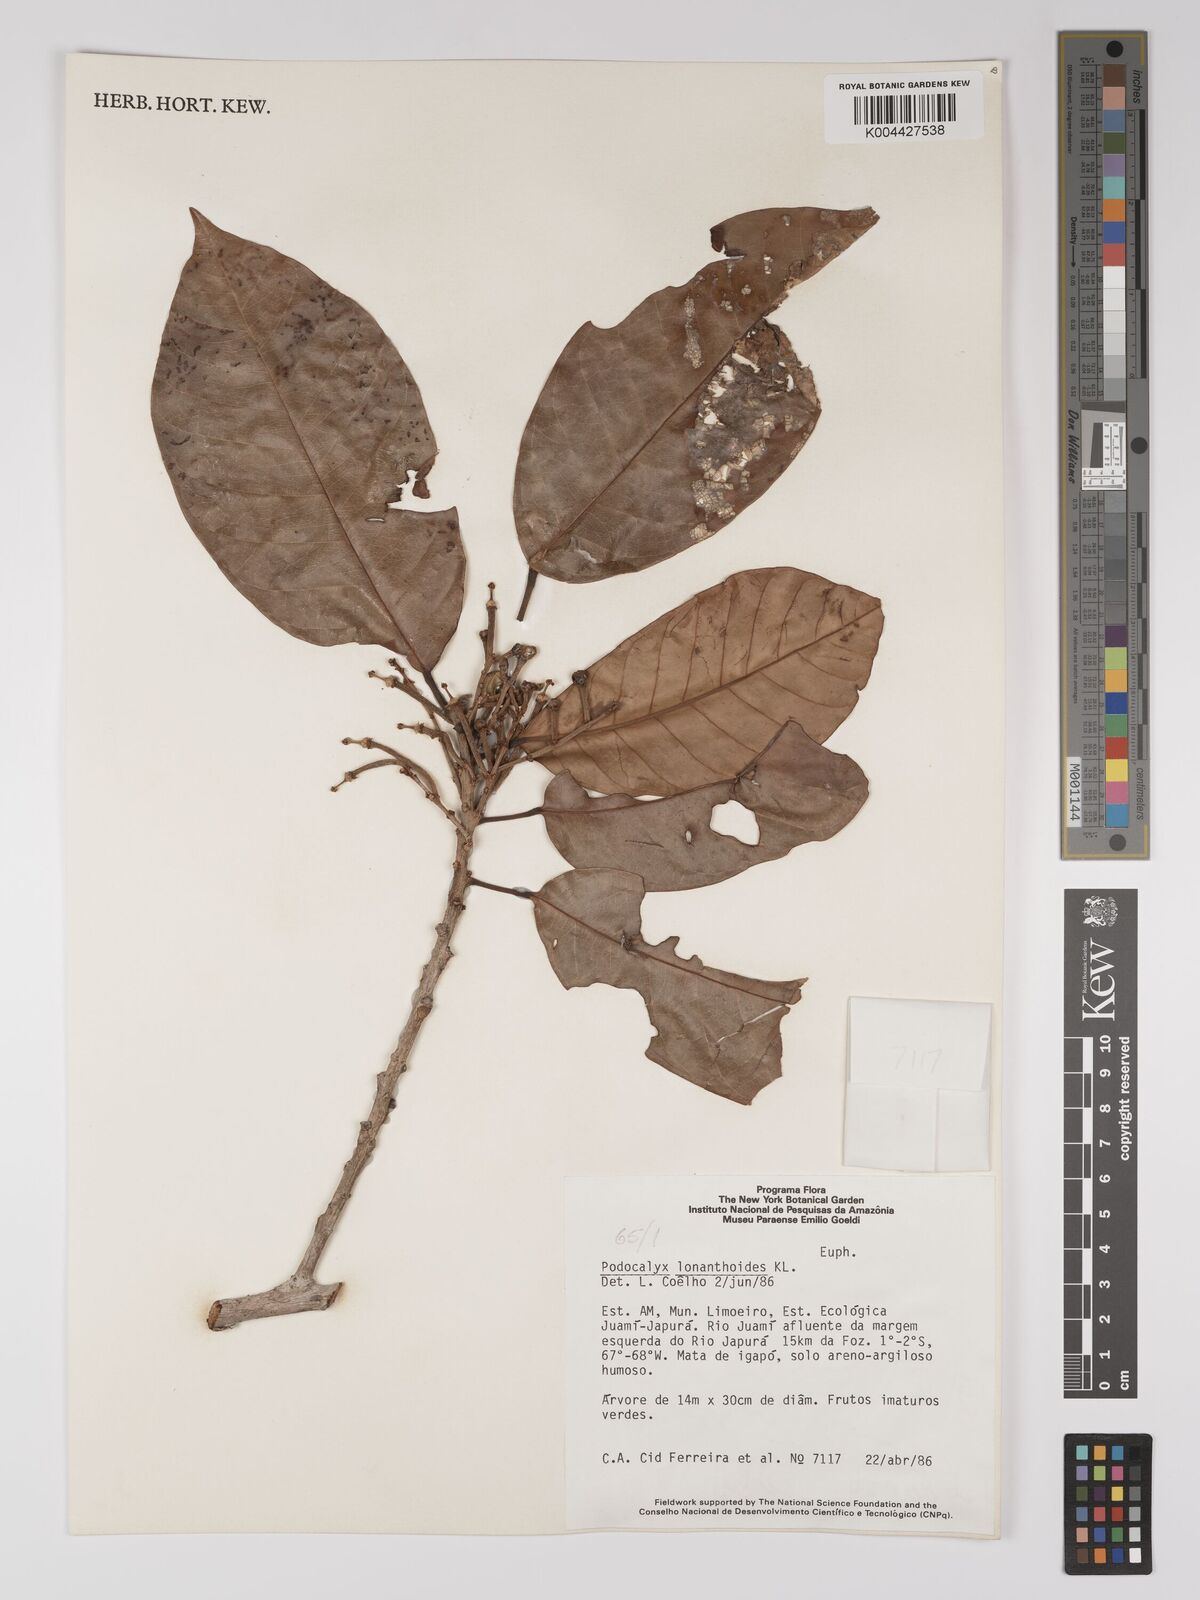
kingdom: Plantae
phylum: Tracheophyta
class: Magnoliopsida
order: Malpighiales
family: Picrodendraceae
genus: Podocalyx
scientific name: Podocalyx loranthoides
